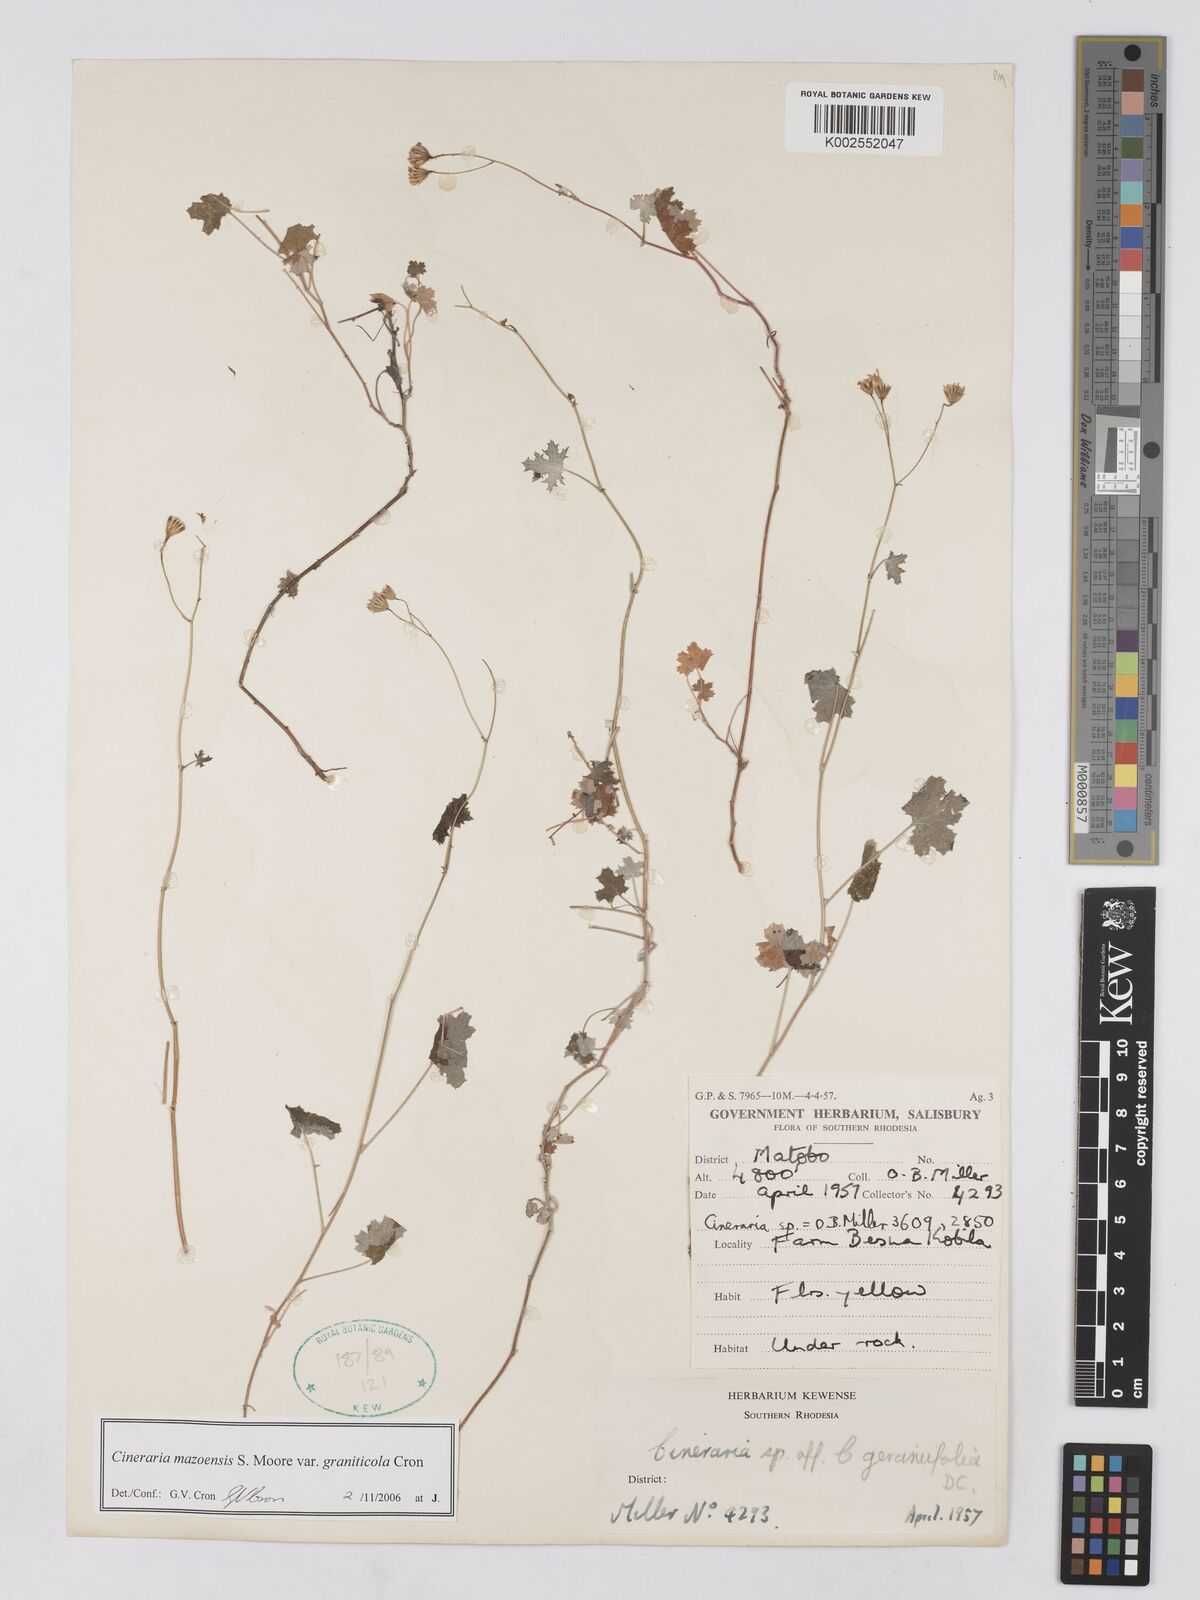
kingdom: Plantae
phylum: Tracheophyta
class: Magnoliopsida
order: Asterales
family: Asteraceae
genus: Cineraria
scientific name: Cineraria mazoensis
